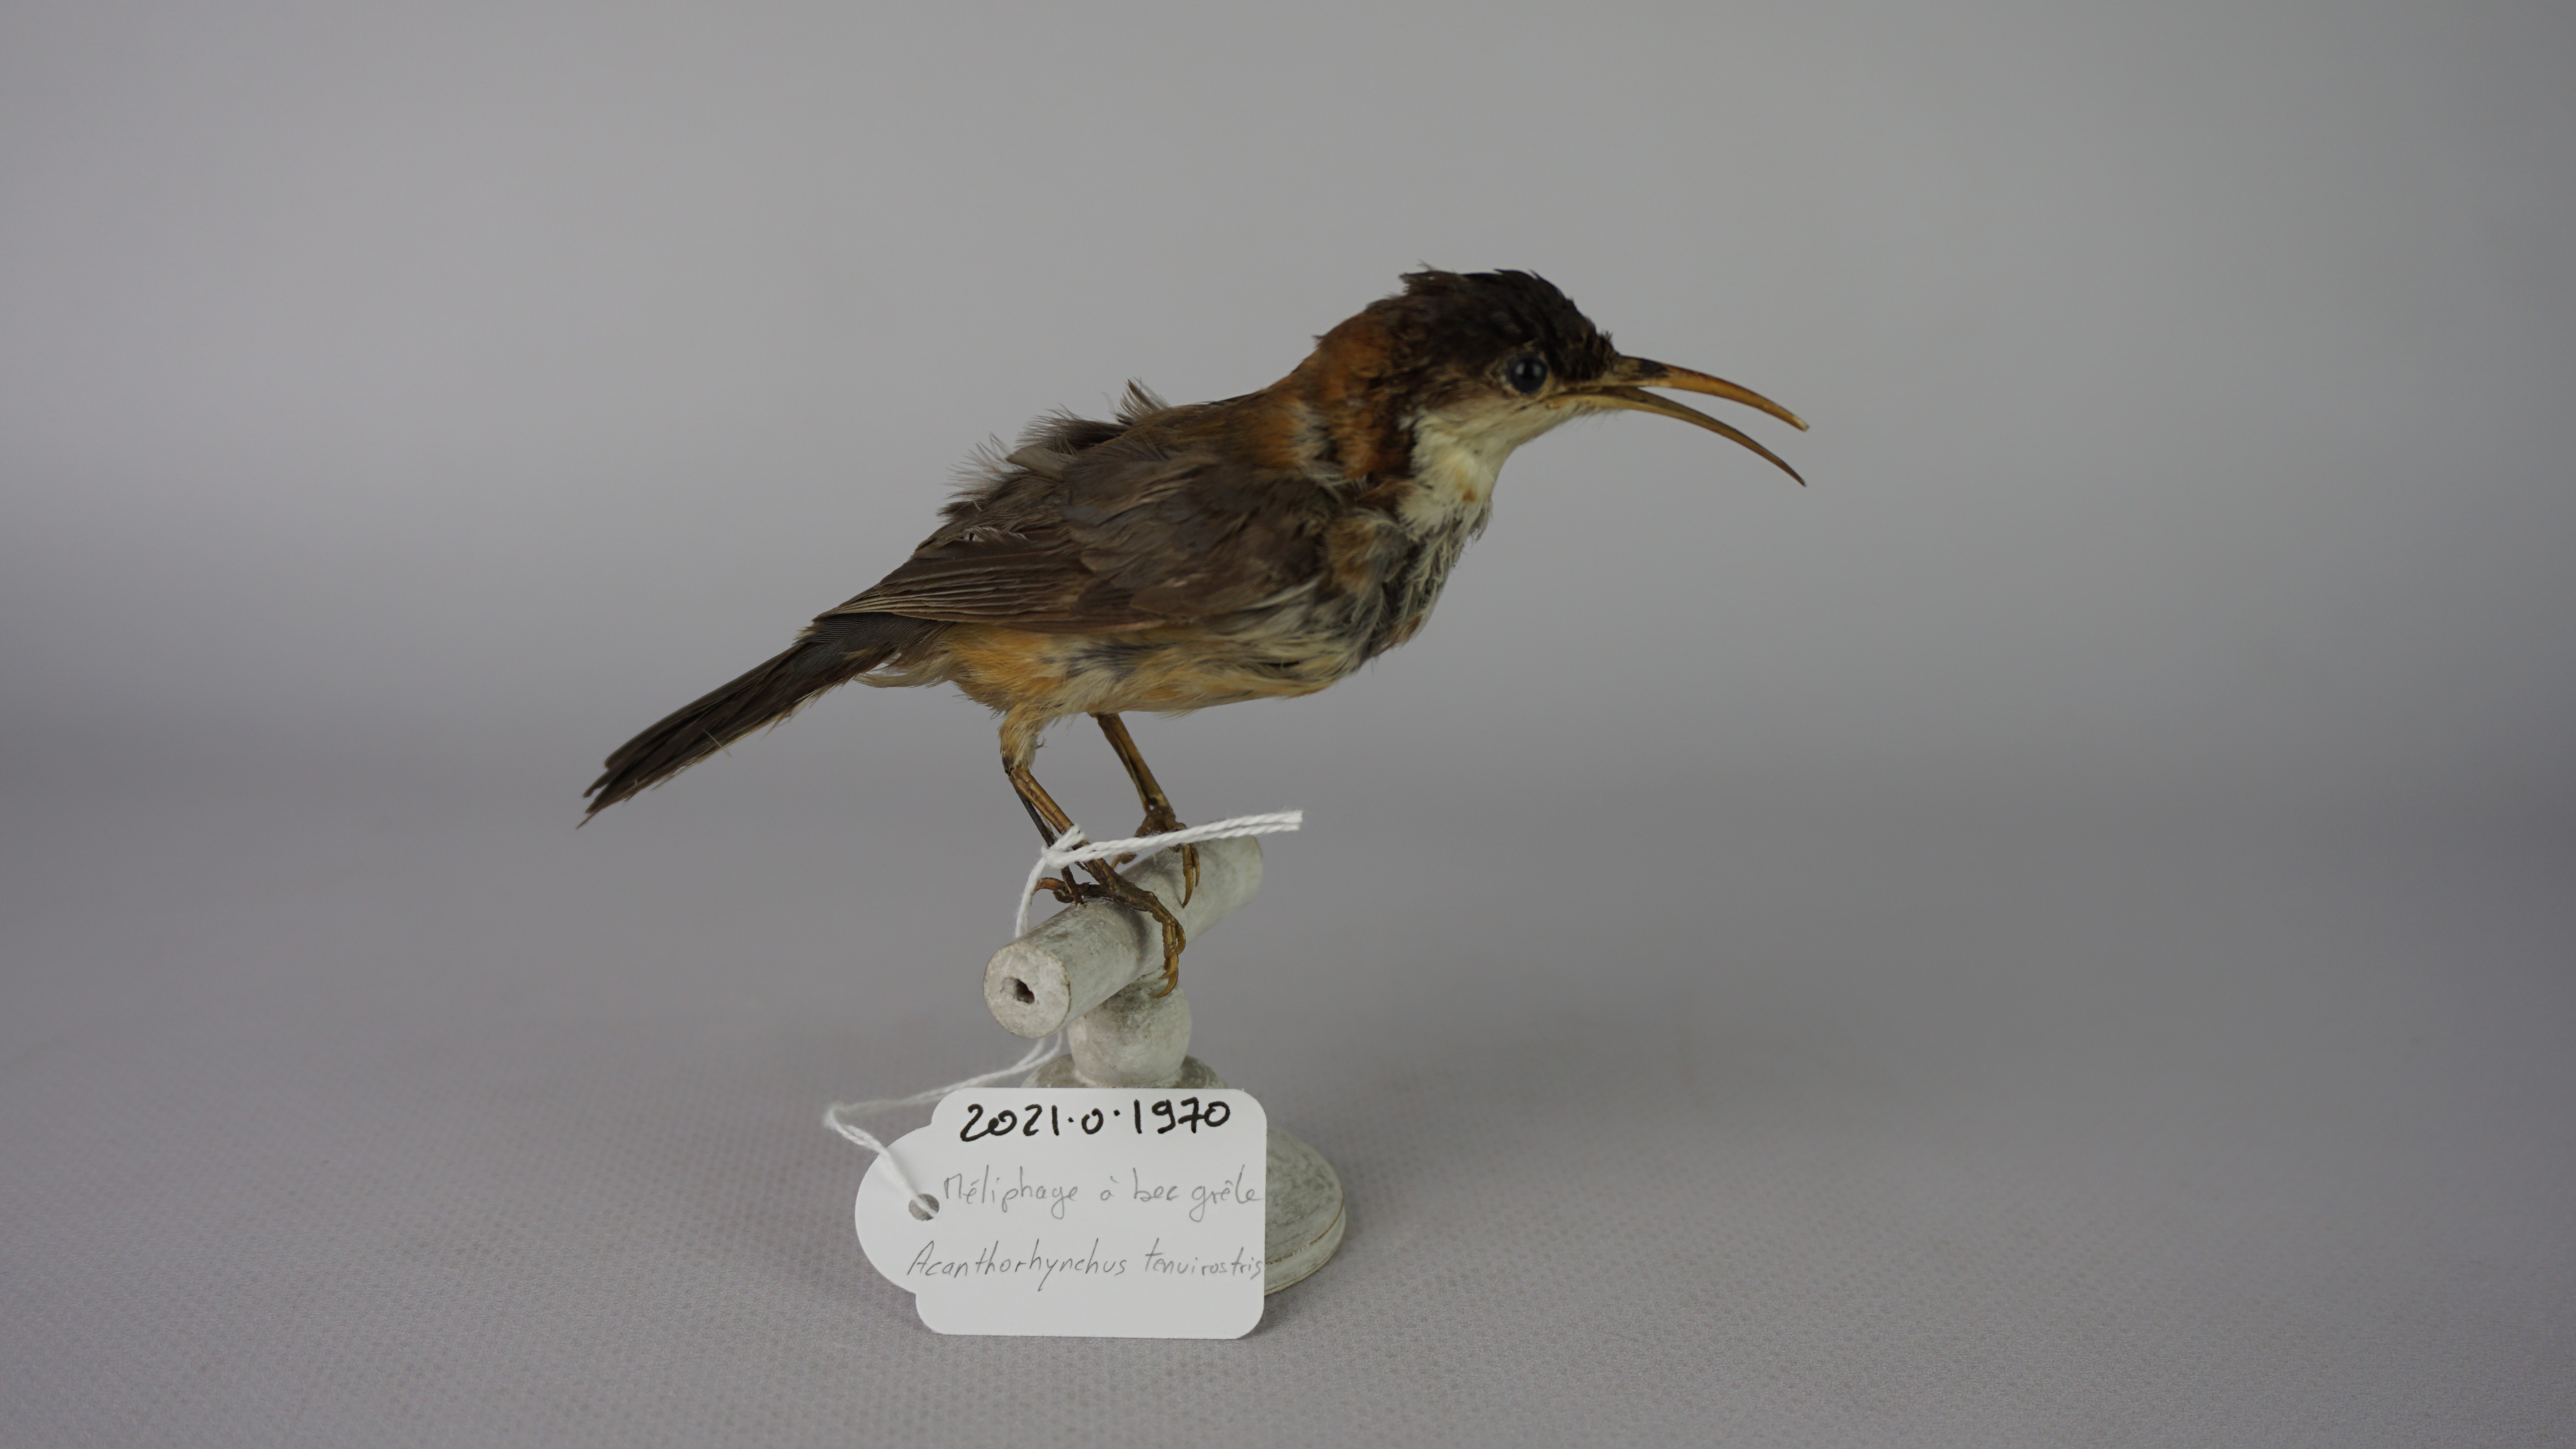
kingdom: Animalia
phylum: Chordata
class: Aves
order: Passeriformes
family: Meliphagidae
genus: Acanthorhynchus
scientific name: Acanthorhynchus tenuirostris
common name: Eastern spinebill
